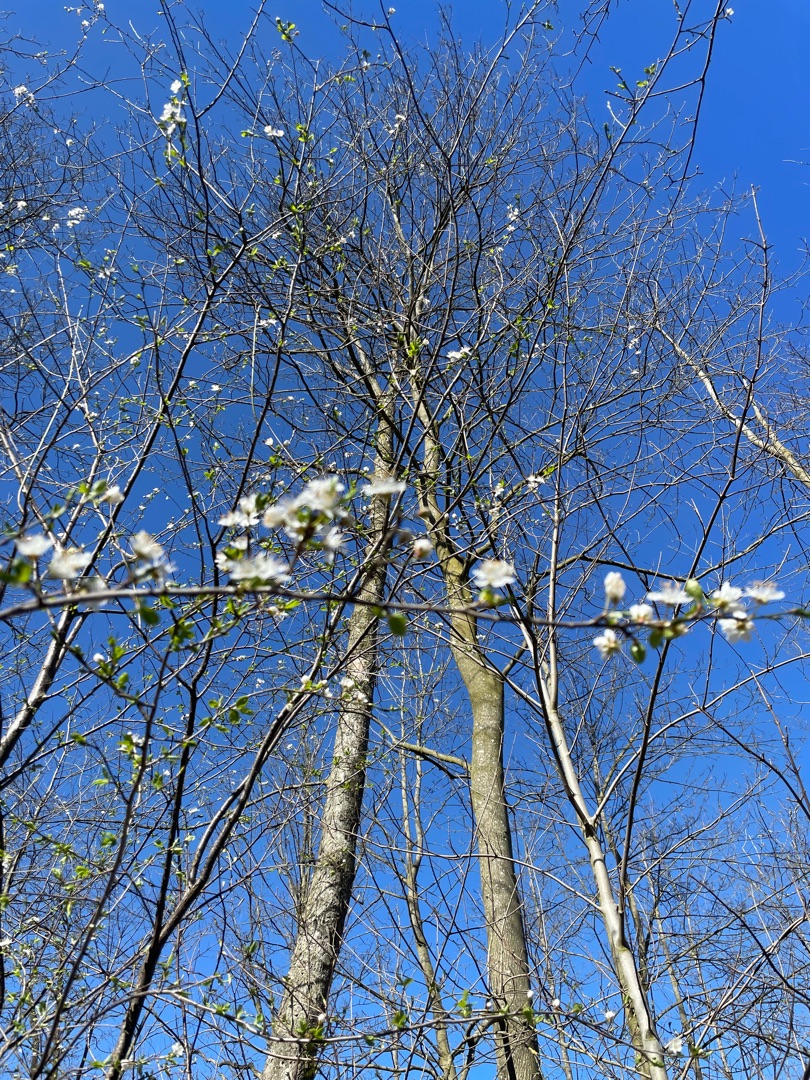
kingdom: Plantae
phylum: Tracheophyta
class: Magnoliopsida
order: Rosales
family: Rosaceae
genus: Prunus
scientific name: Prunus cerasifera
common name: Mirabel
